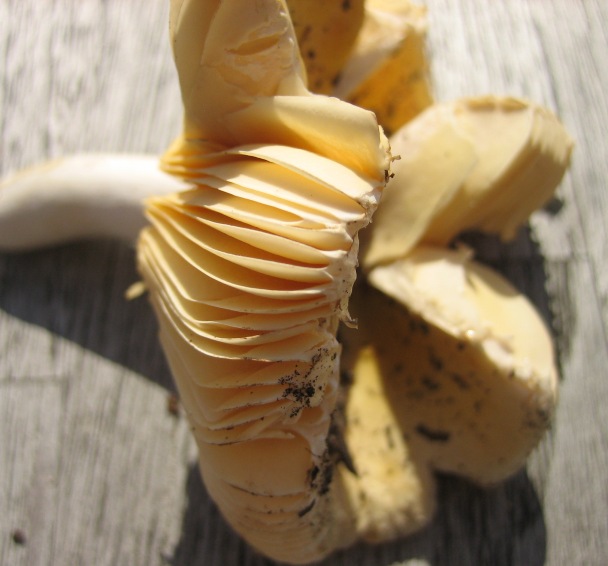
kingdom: Fungi
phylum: Basidiomycota
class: Agaricomycetes
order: Russulales
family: Russulaceae
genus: Russula
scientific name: Russula risigallina
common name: abrikos-skørhat
